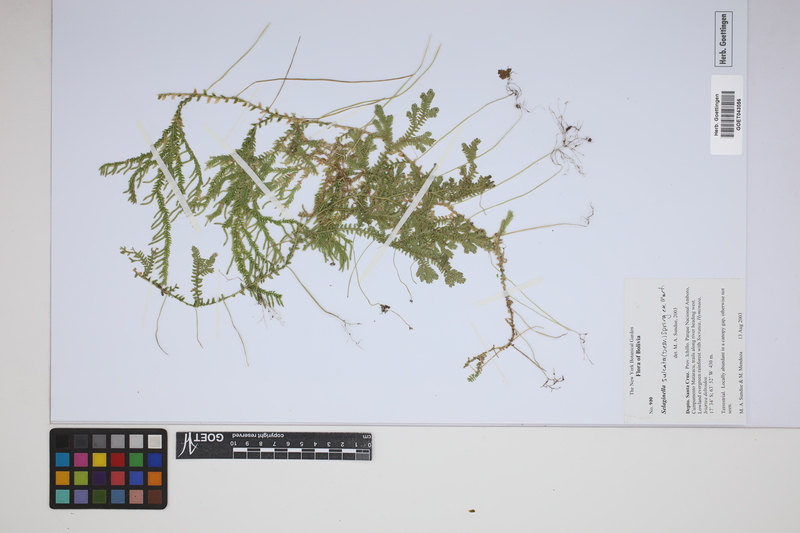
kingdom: Plantae
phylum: Tracheophyta
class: Lycopodiopsida
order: Selaginellales
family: Selaginellaceae
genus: Selaginella
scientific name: Selaginella sulcata
